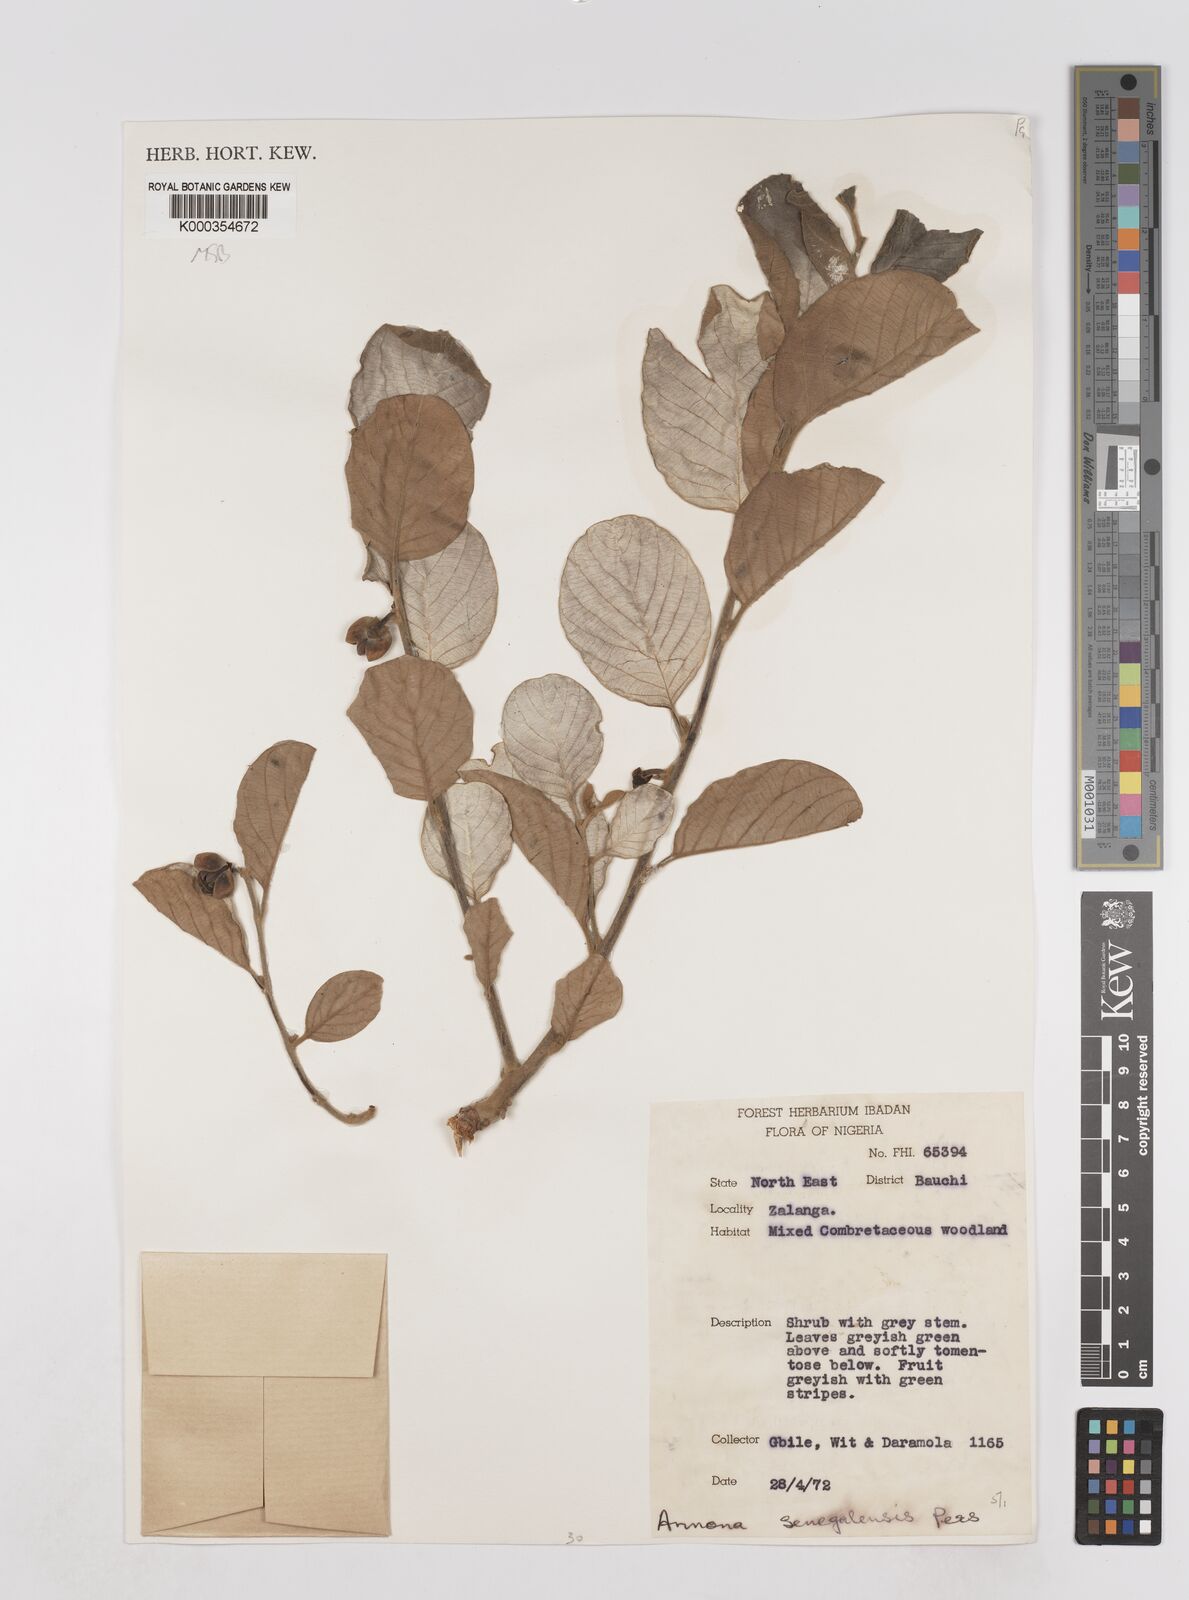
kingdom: Plantae
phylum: Tracheophyta
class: Magnoliopsida
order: Magnoliales
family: Annonaceae
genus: Annona
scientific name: Annona senegalensis
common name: Wild custard-apple
